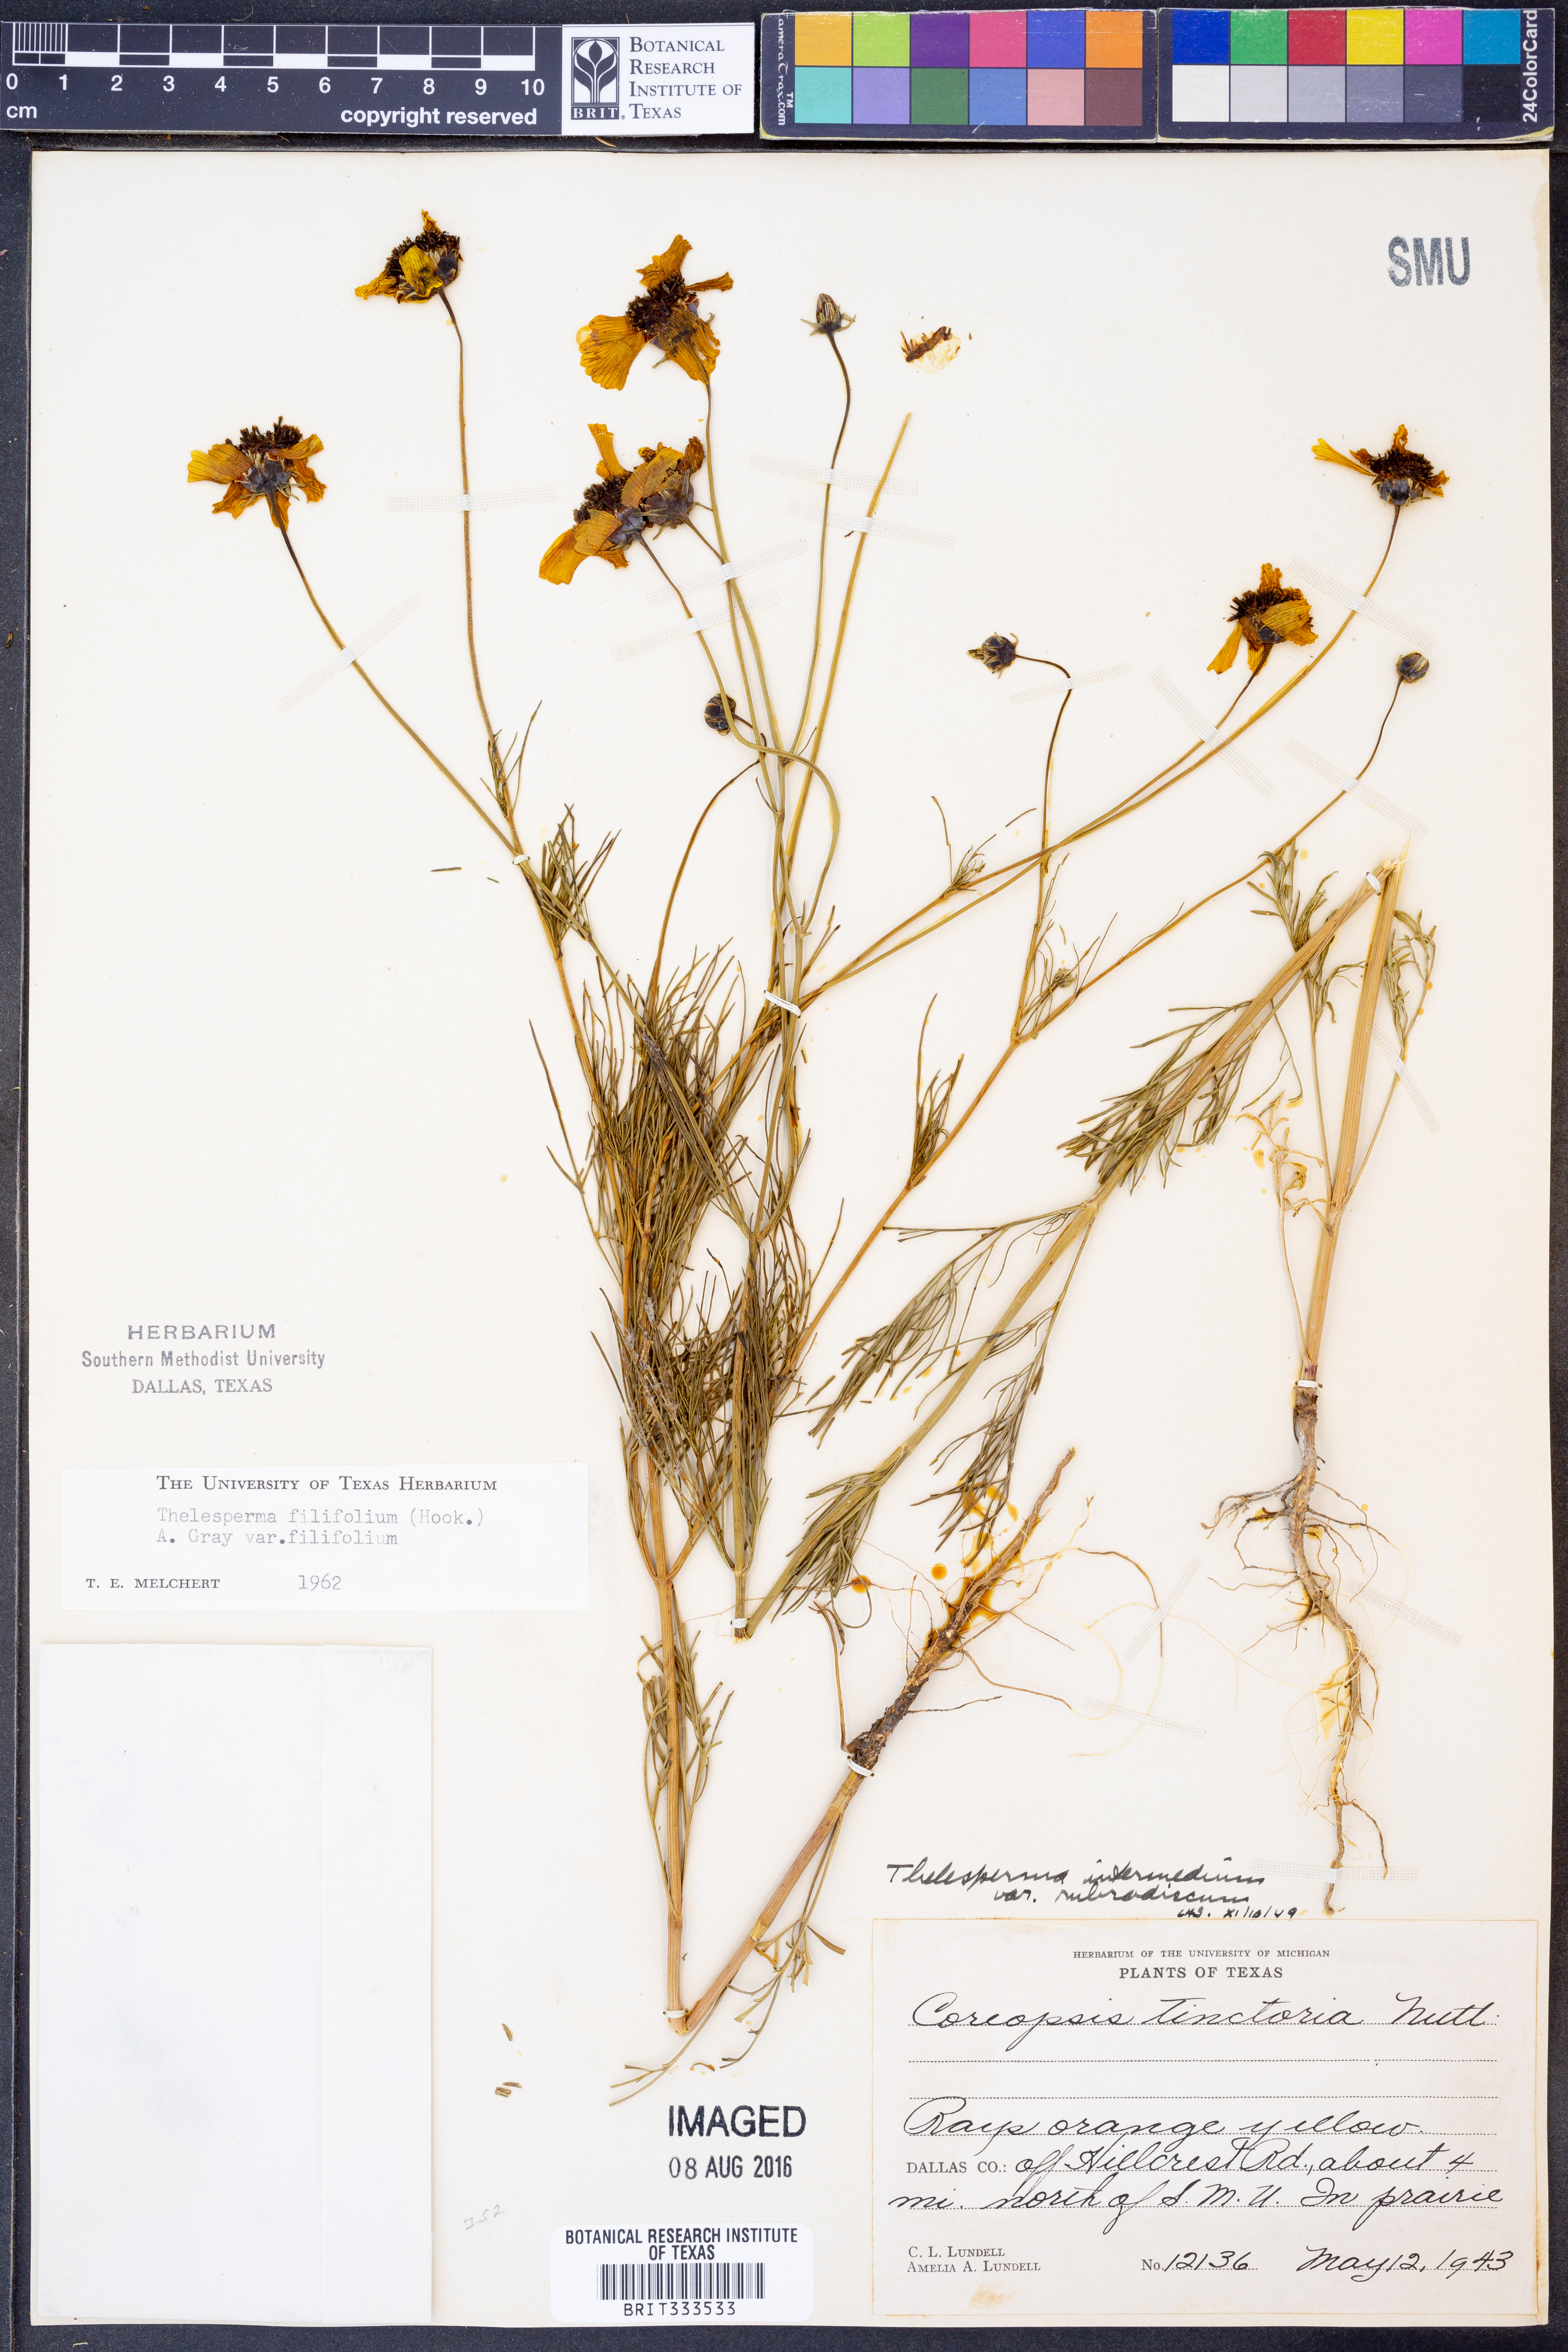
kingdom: Plantae
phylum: Tracheophyta
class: Magnoliopsida
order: Asterales
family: Asteraceae
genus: Thelesperma
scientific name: Thelesperma filifolium
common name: Stiff greenthread
